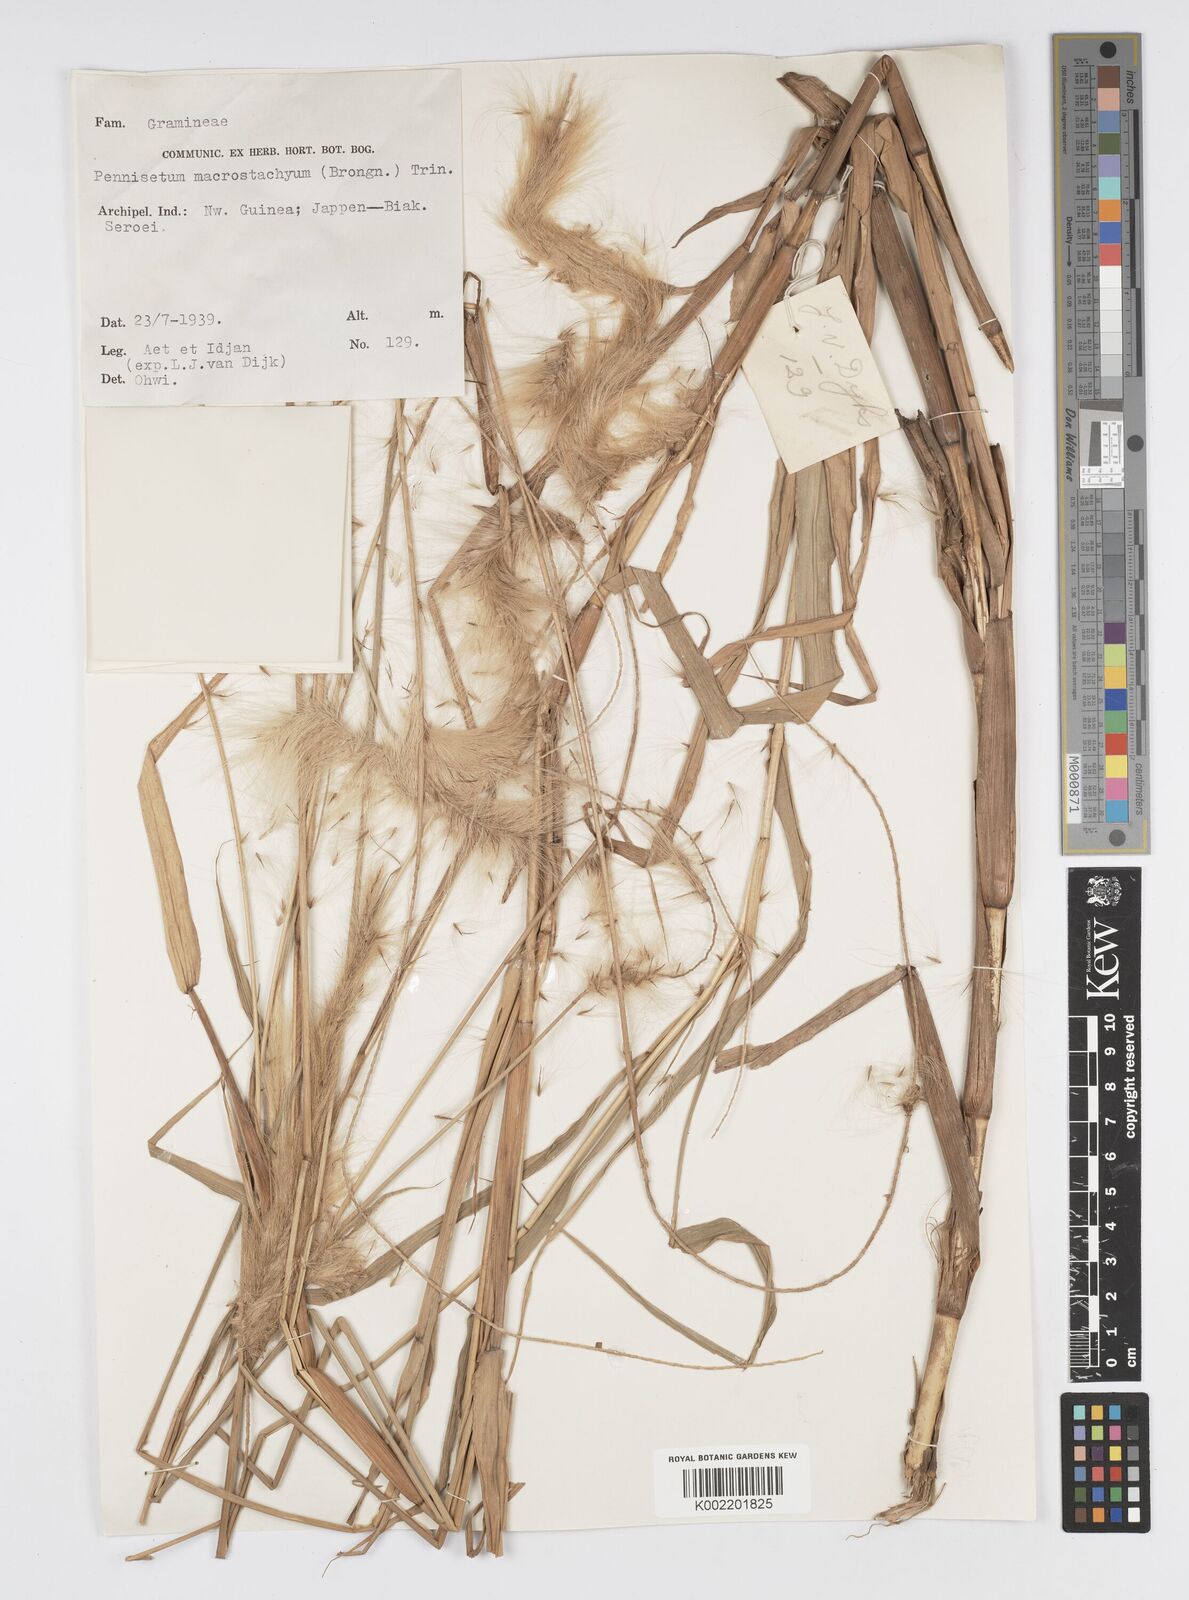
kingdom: Plantae
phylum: Tracheophyta
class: Liliopsida
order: Poales
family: Poaceae
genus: Cenchrus
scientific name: Cenchrus purpureus
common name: Elephant grass
